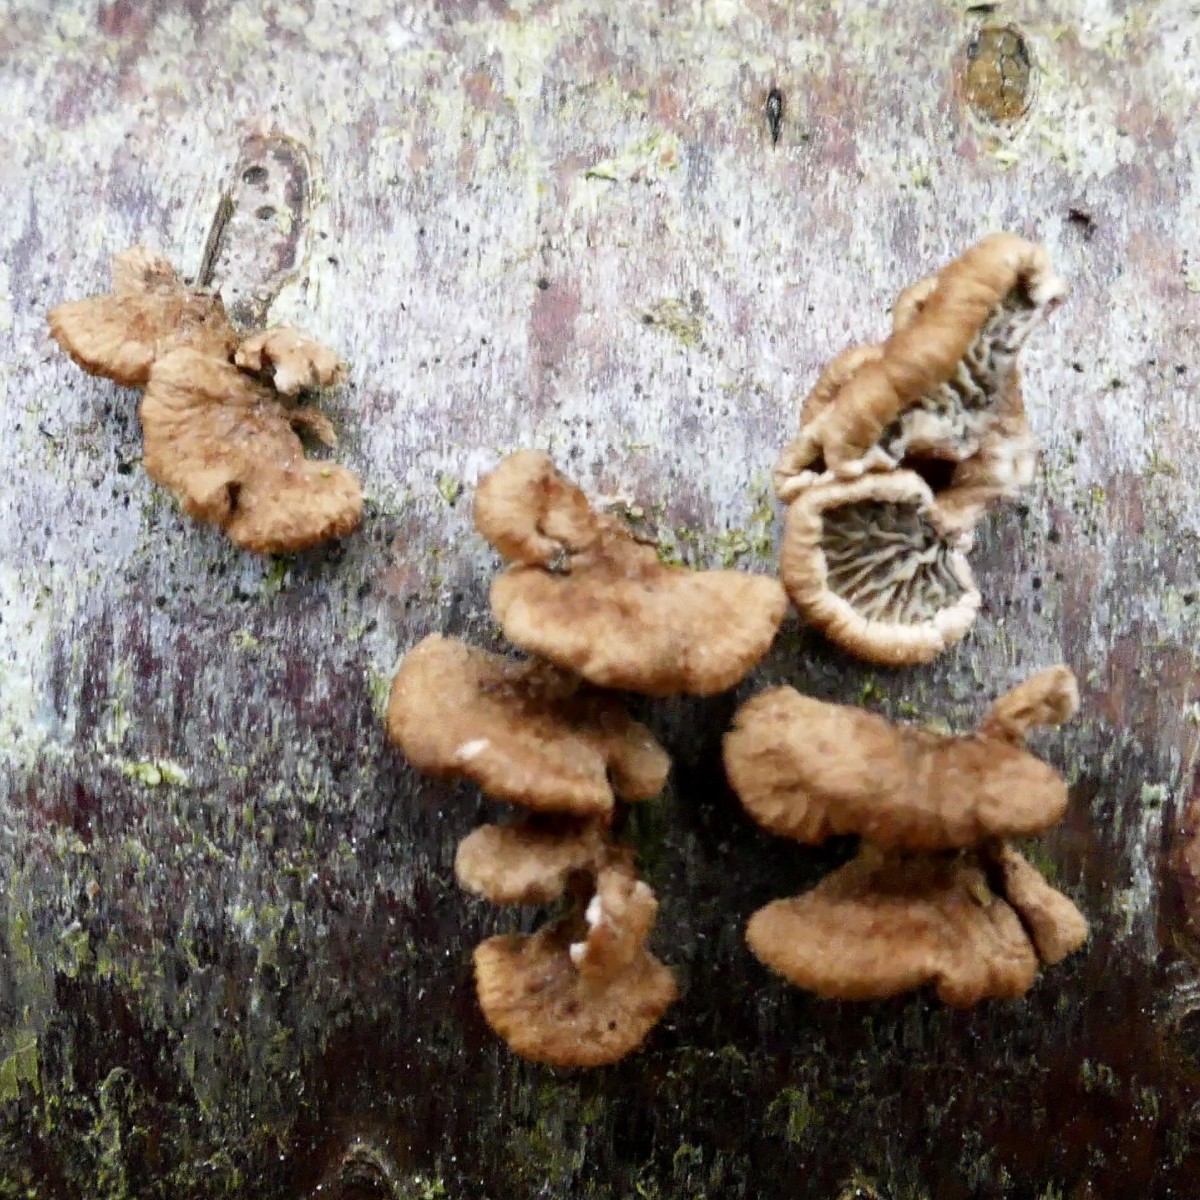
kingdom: Fungi
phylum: Basidiomycota
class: Agaricomycetes
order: Amylocorticiales
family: Amylocorticiaceae
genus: Plicaturopsis
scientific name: Plicaturopsis crispa
